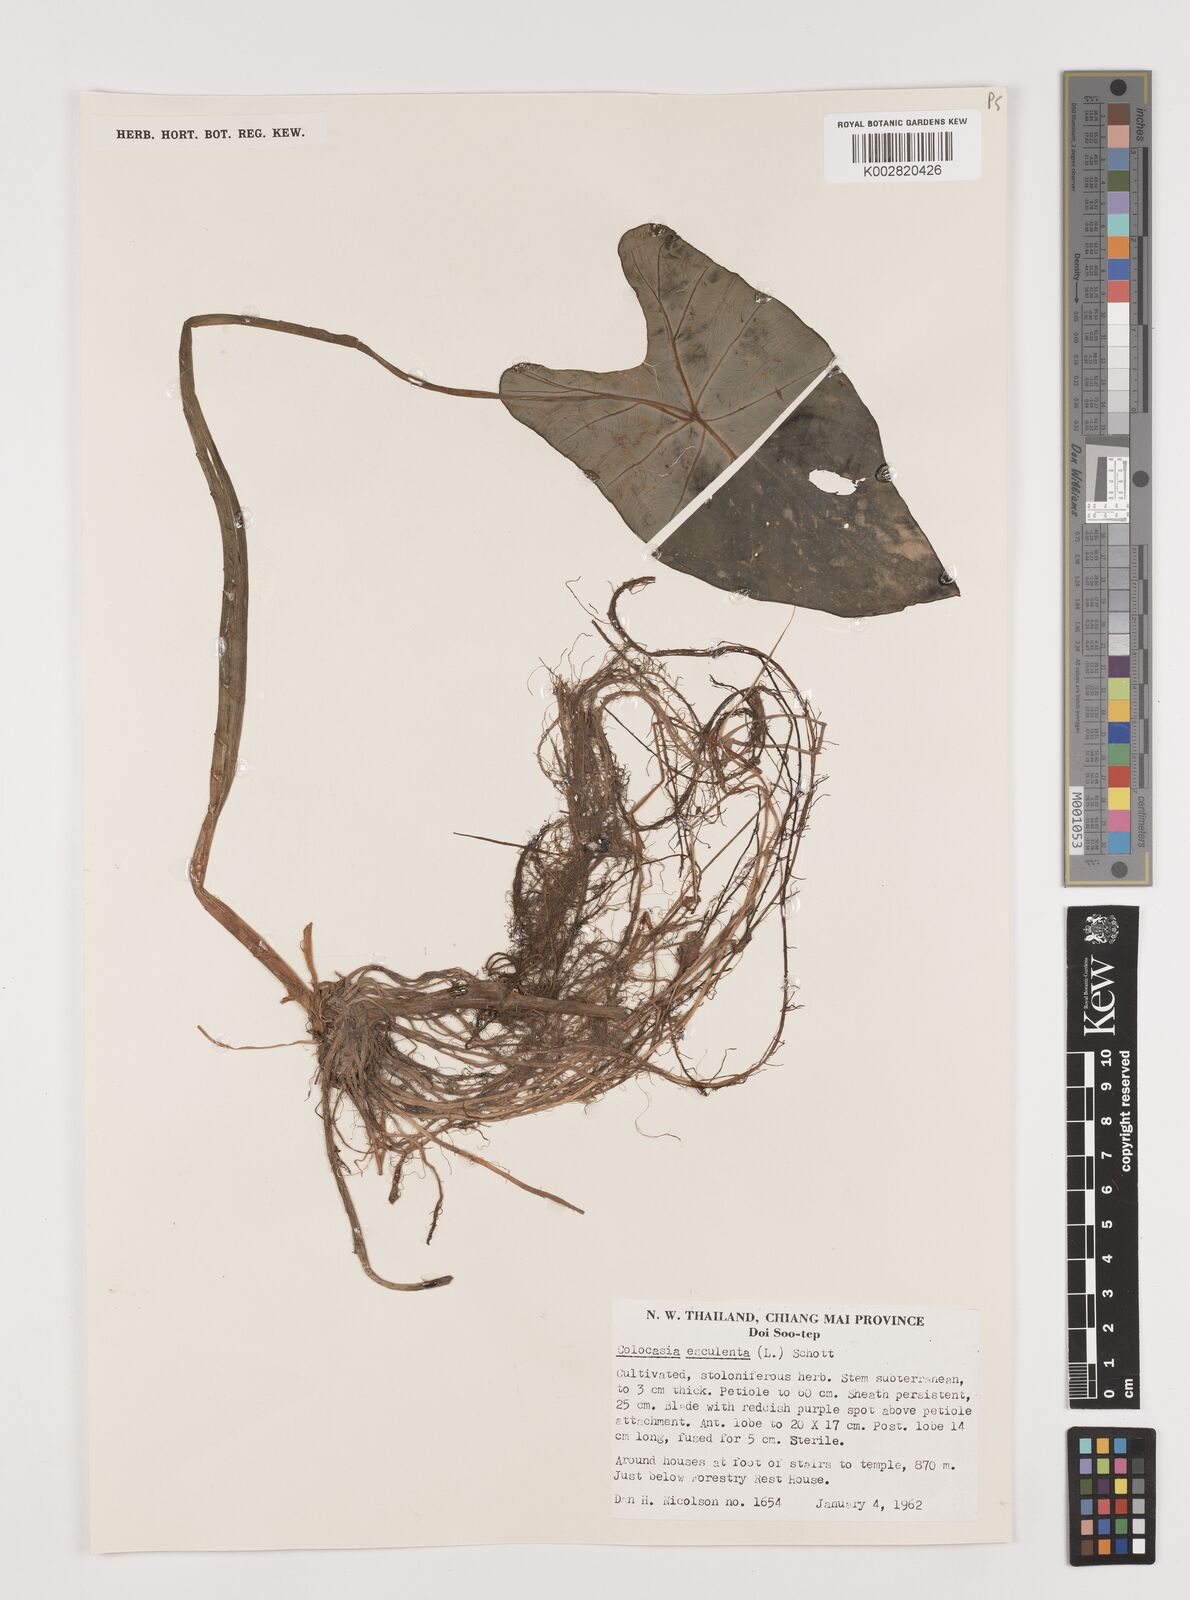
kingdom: Plantae
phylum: Tracheophyta
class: Liliopsida
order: Alismatales
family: Araceae
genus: Colocasia
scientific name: Colocasia esculenta
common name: Taro
